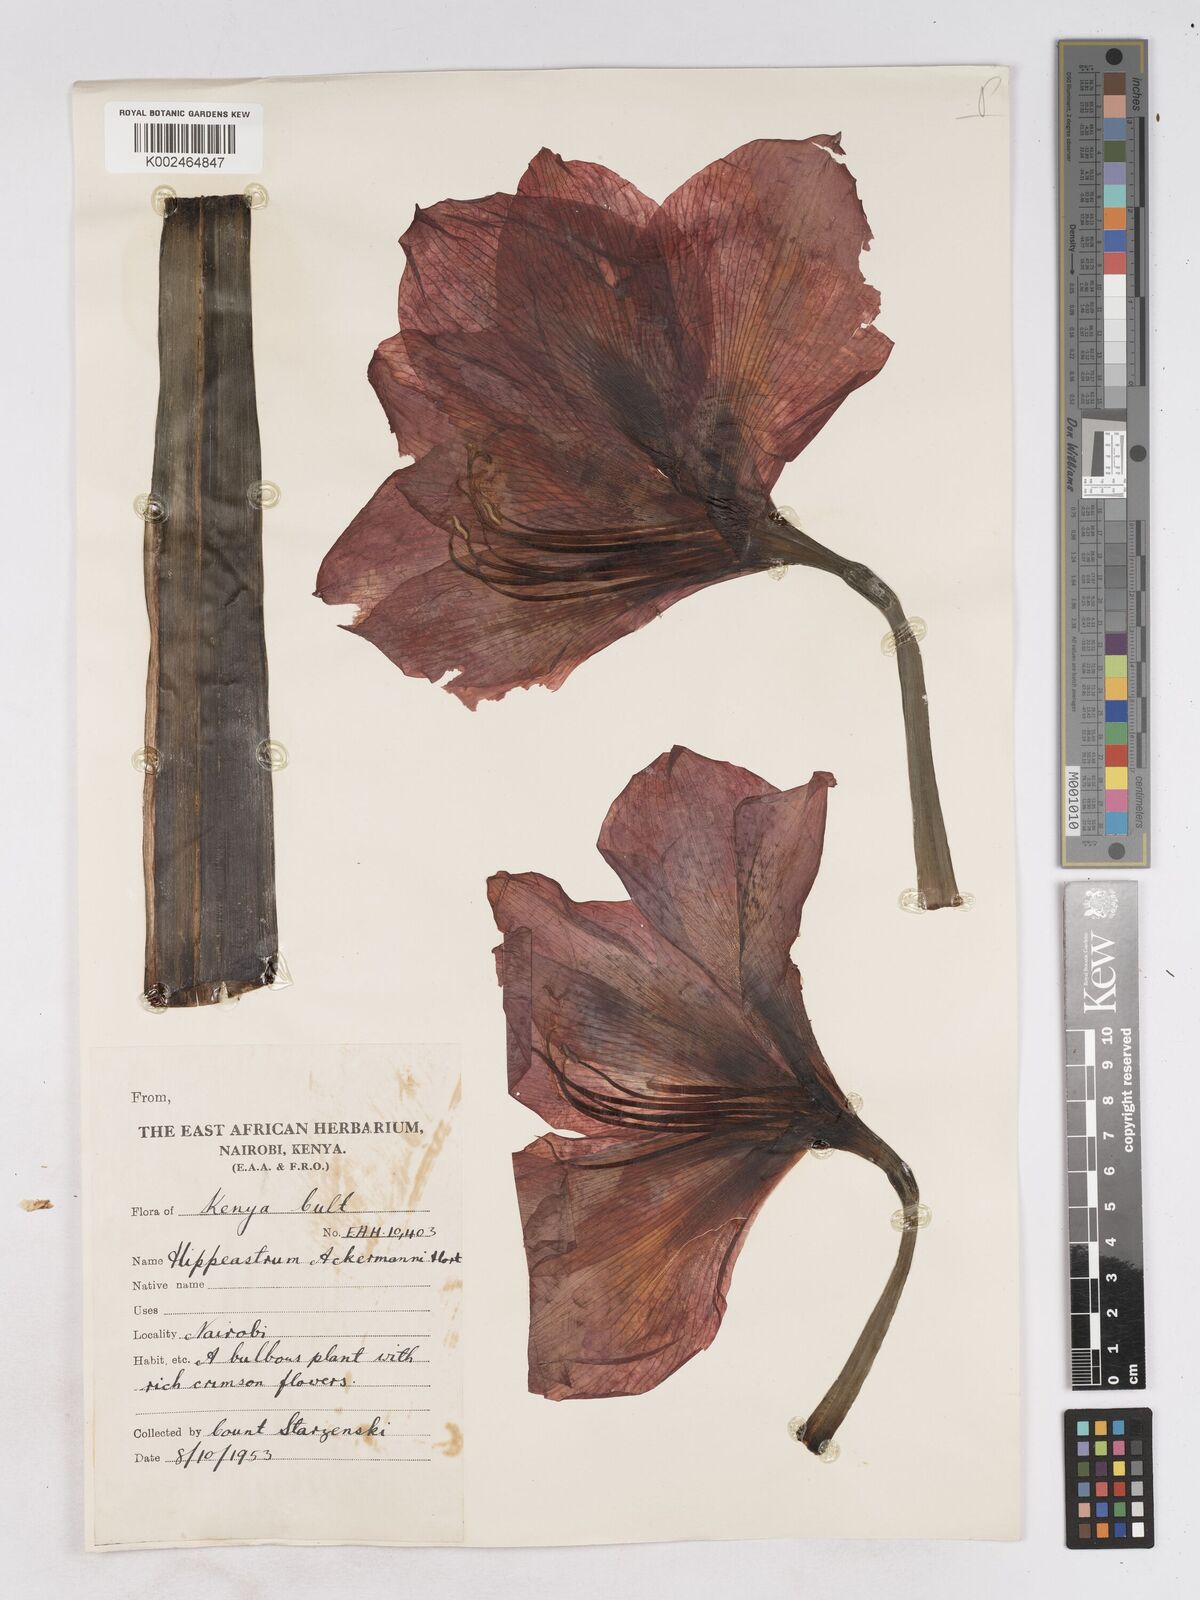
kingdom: Plantae
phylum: Tracheophyta
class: Liliopsida
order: Asparagales
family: Amaryllidaceae
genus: Hippeastrum
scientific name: Hippeastrum
